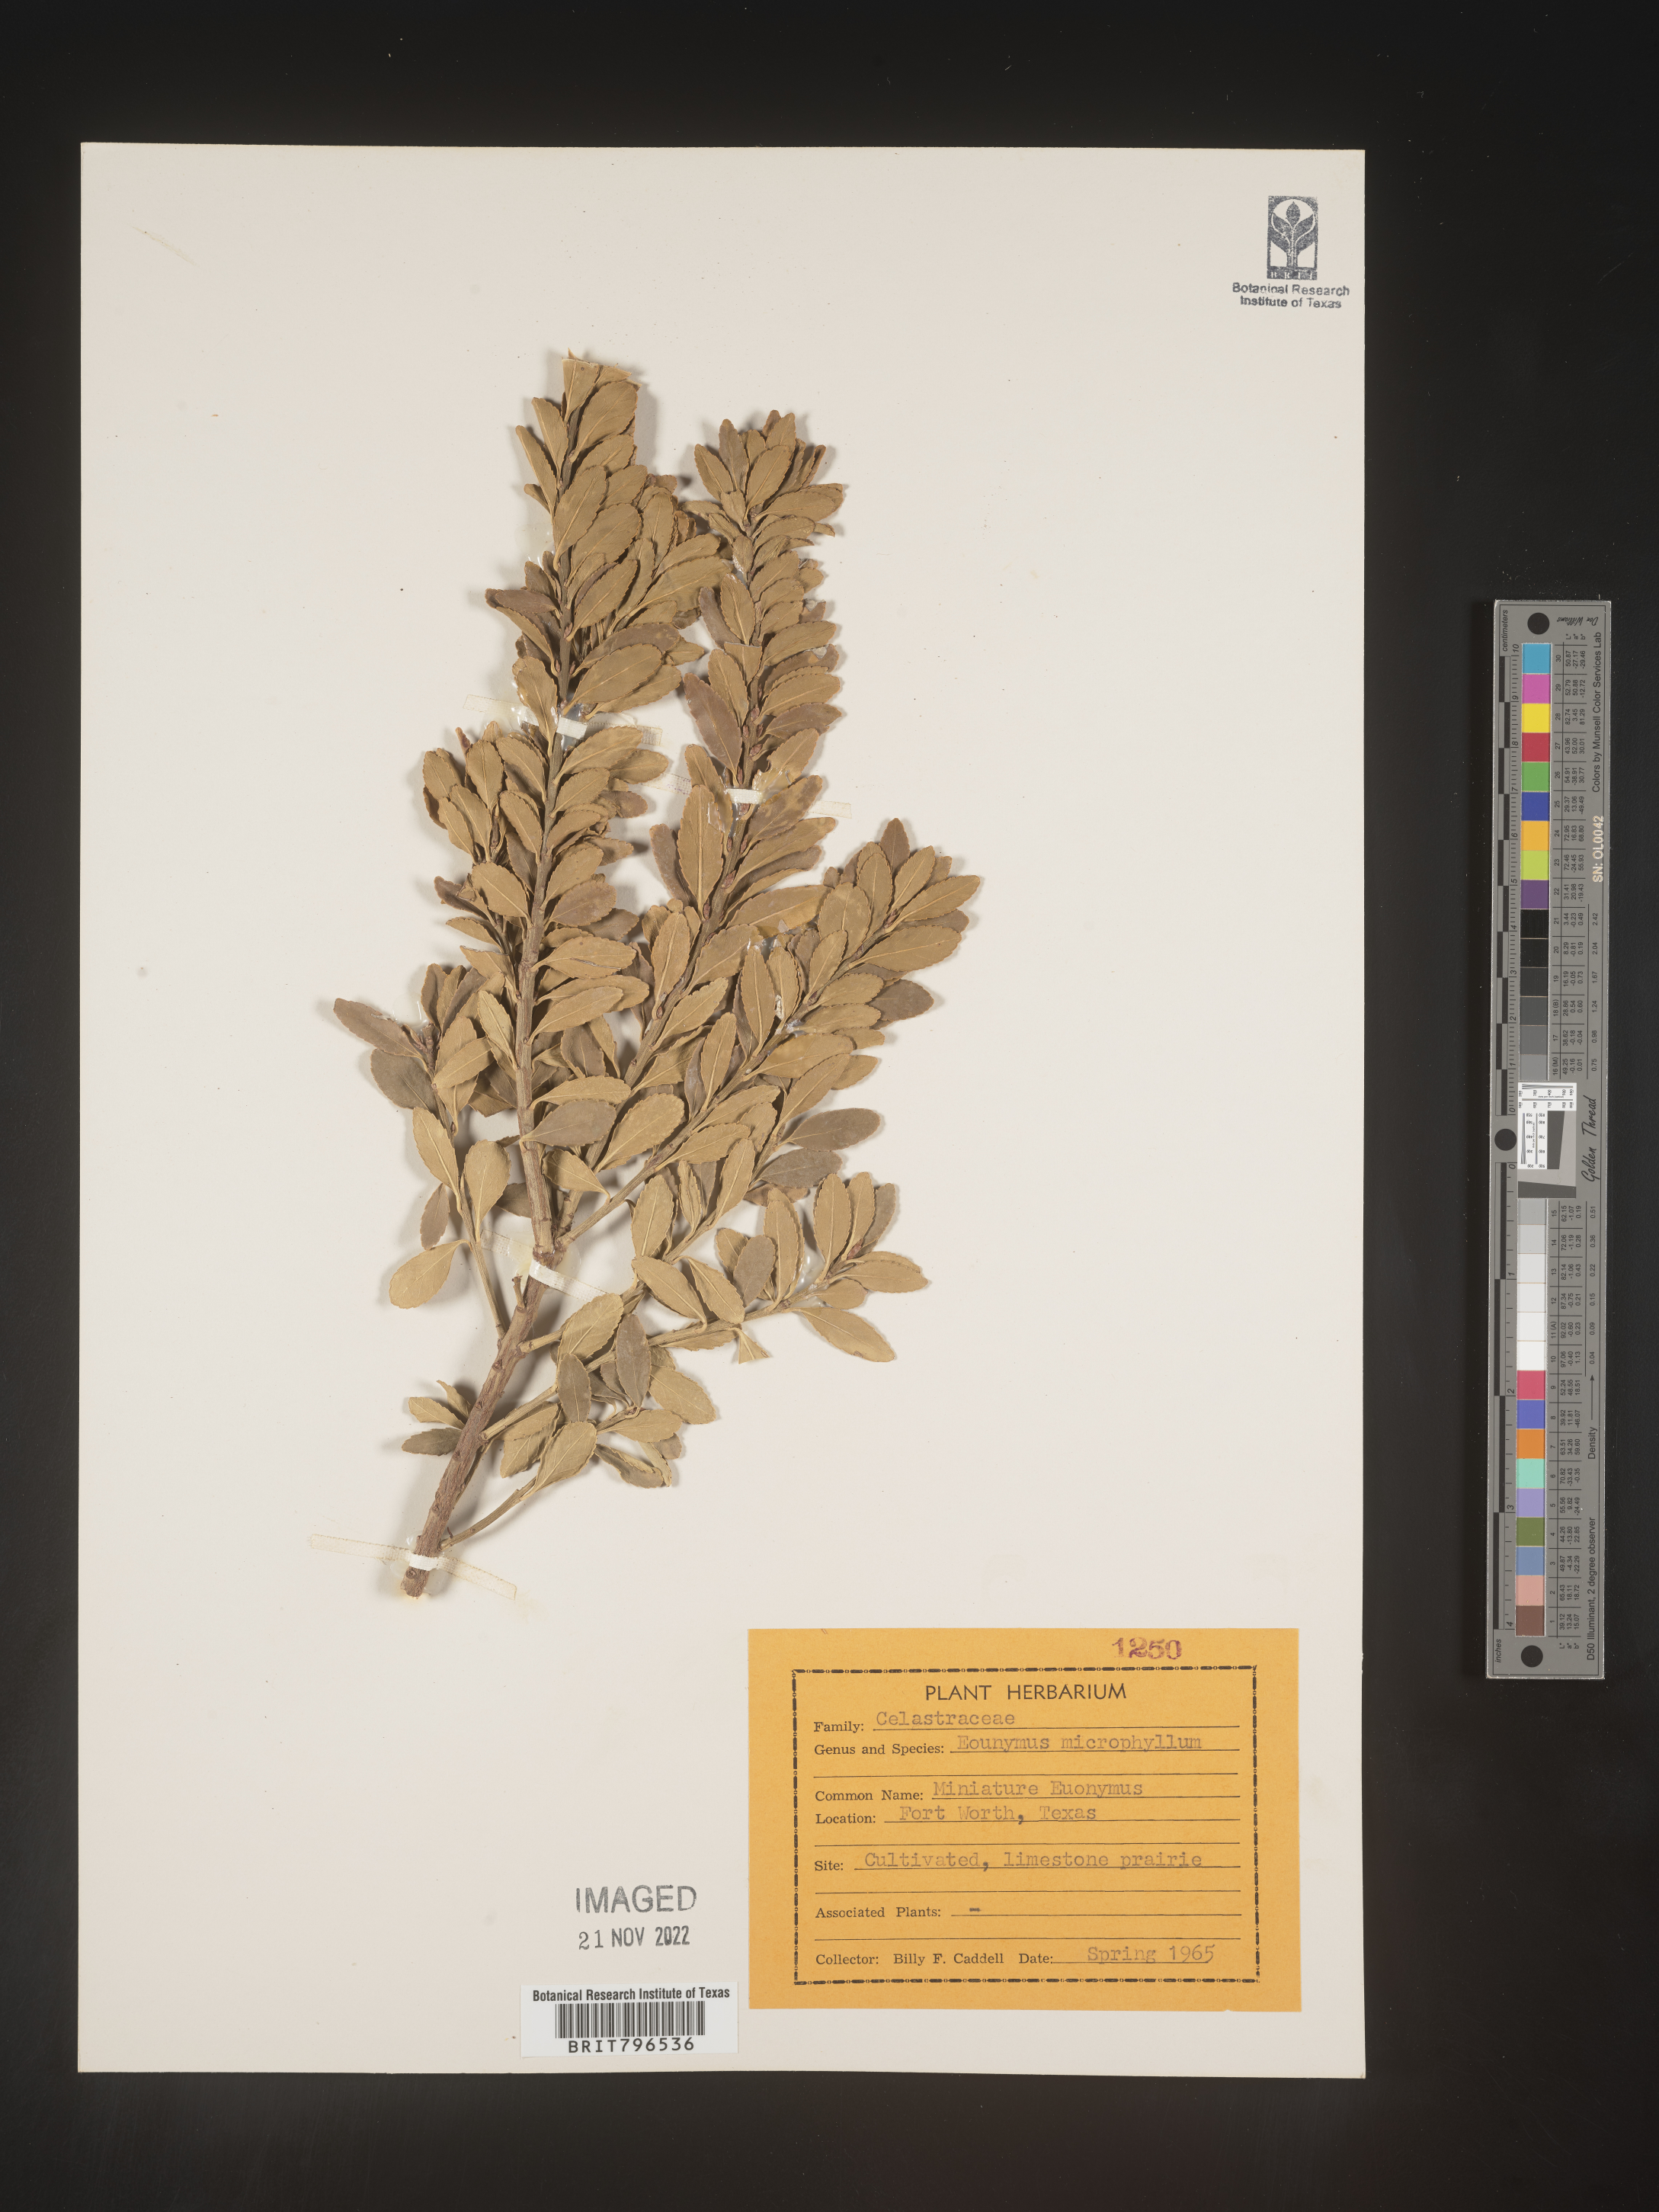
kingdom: Plantae
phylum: Tracheophyta
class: Magnoliopsida
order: Celastrales
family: Celastraceae
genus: Euonymus
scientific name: Euonymus
